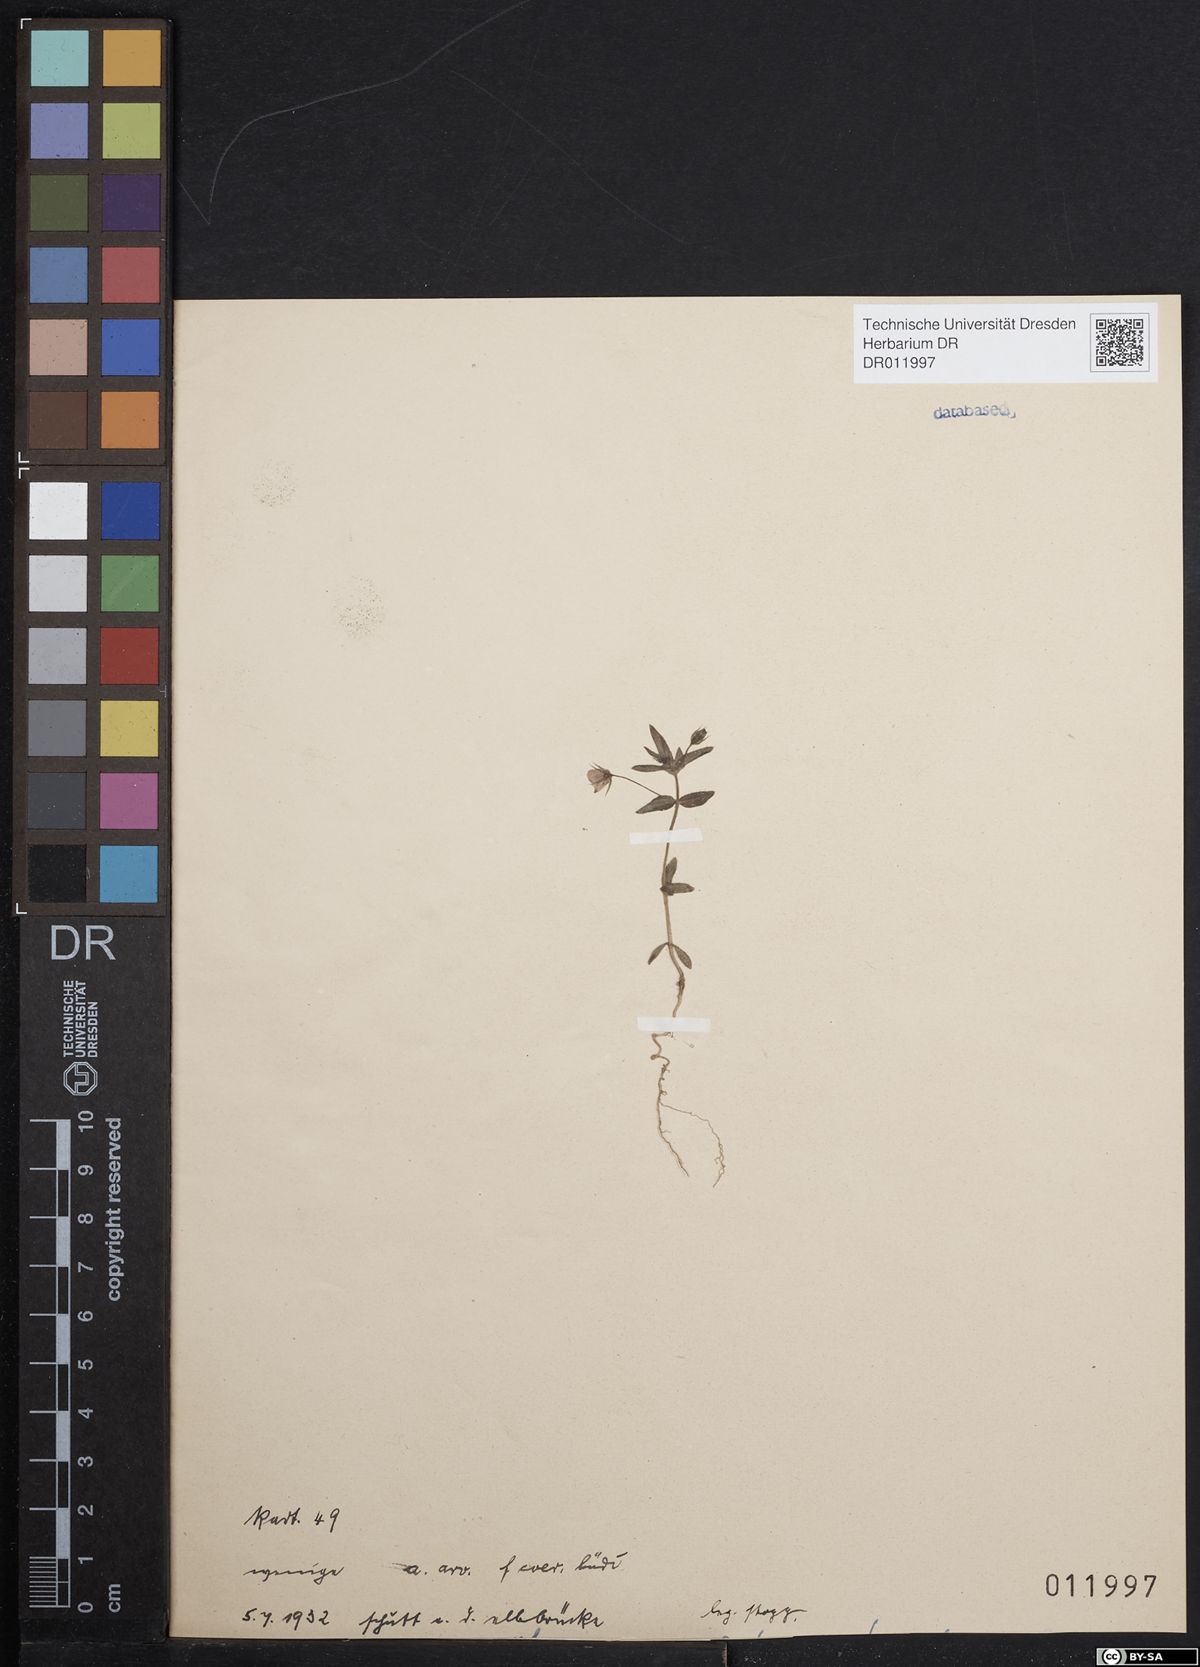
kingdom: Plantae
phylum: Tracheophyta
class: Magnoliopsida
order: Ericales
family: Primulaceae
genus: Lysimachia
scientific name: Lysimachia arvensis
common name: Scarlet pimpernel
